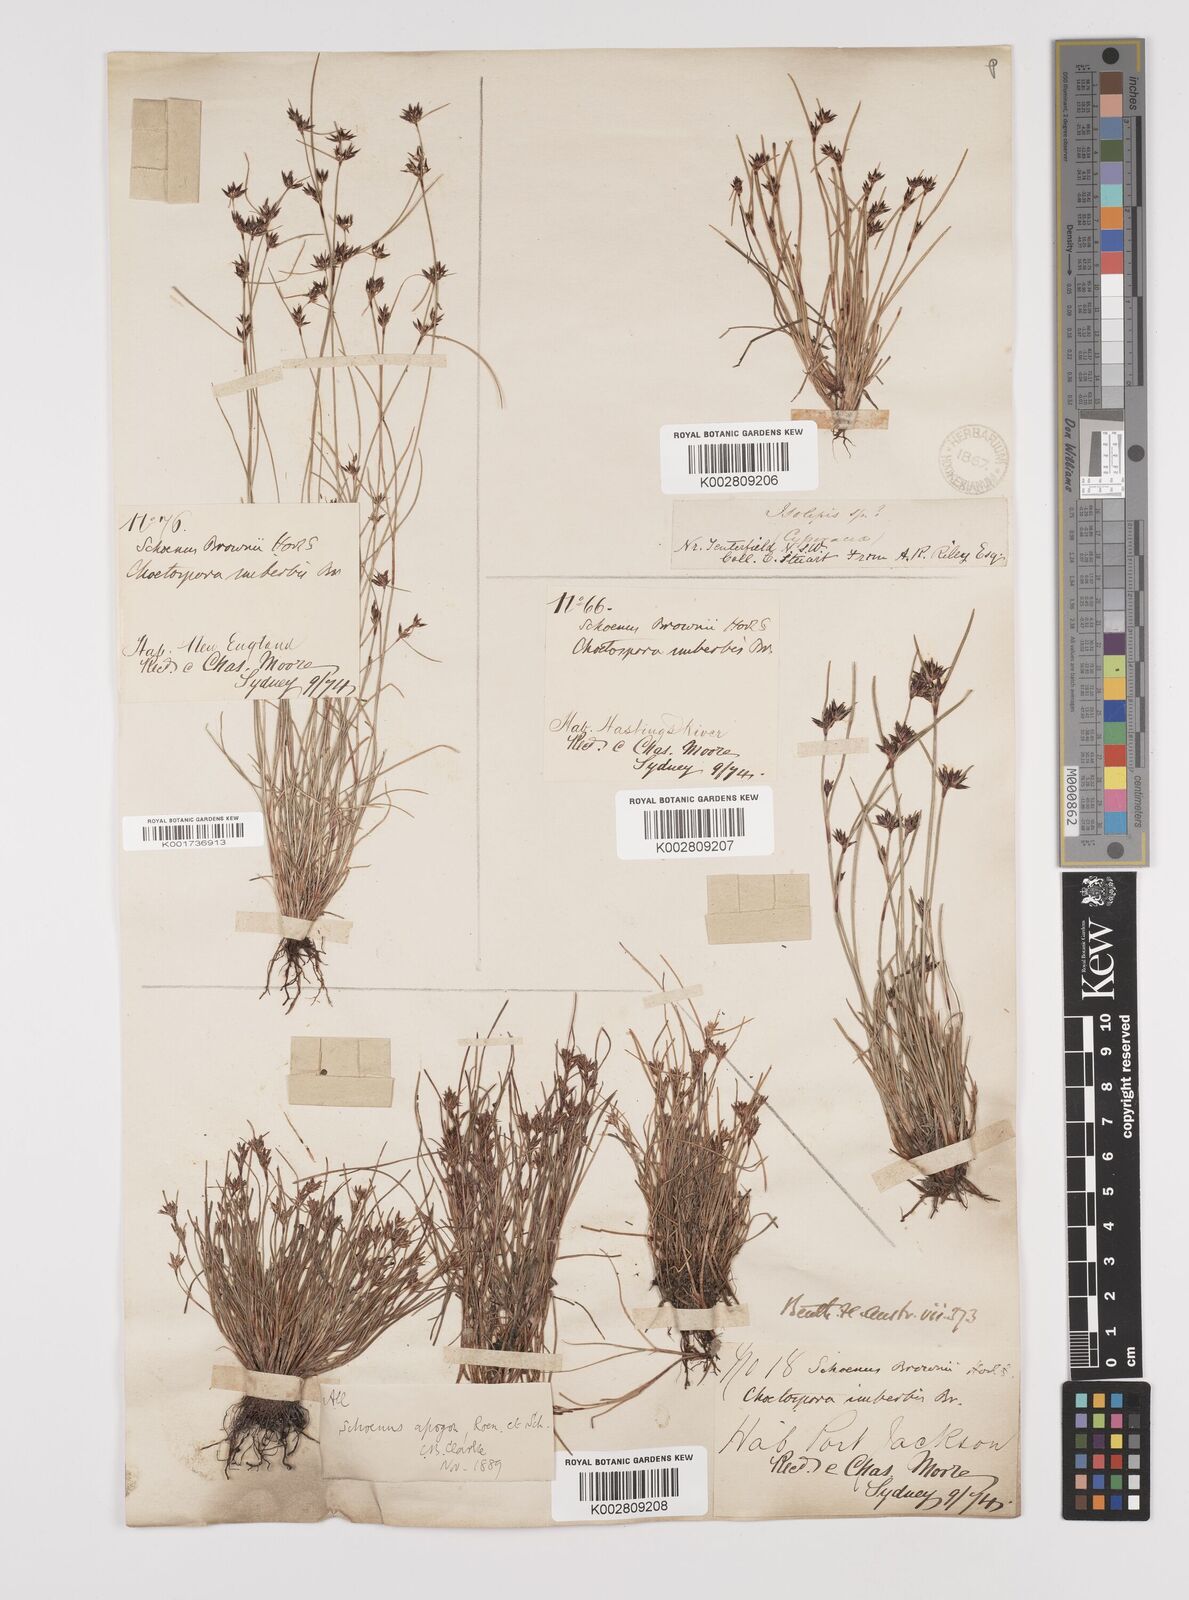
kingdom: Plantae
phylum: Tracheophyta
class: Liliopsida
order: Poales
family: Cyperaceae
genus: Schoenus
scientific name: Schoenus apogon
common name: Smooth bogrush
